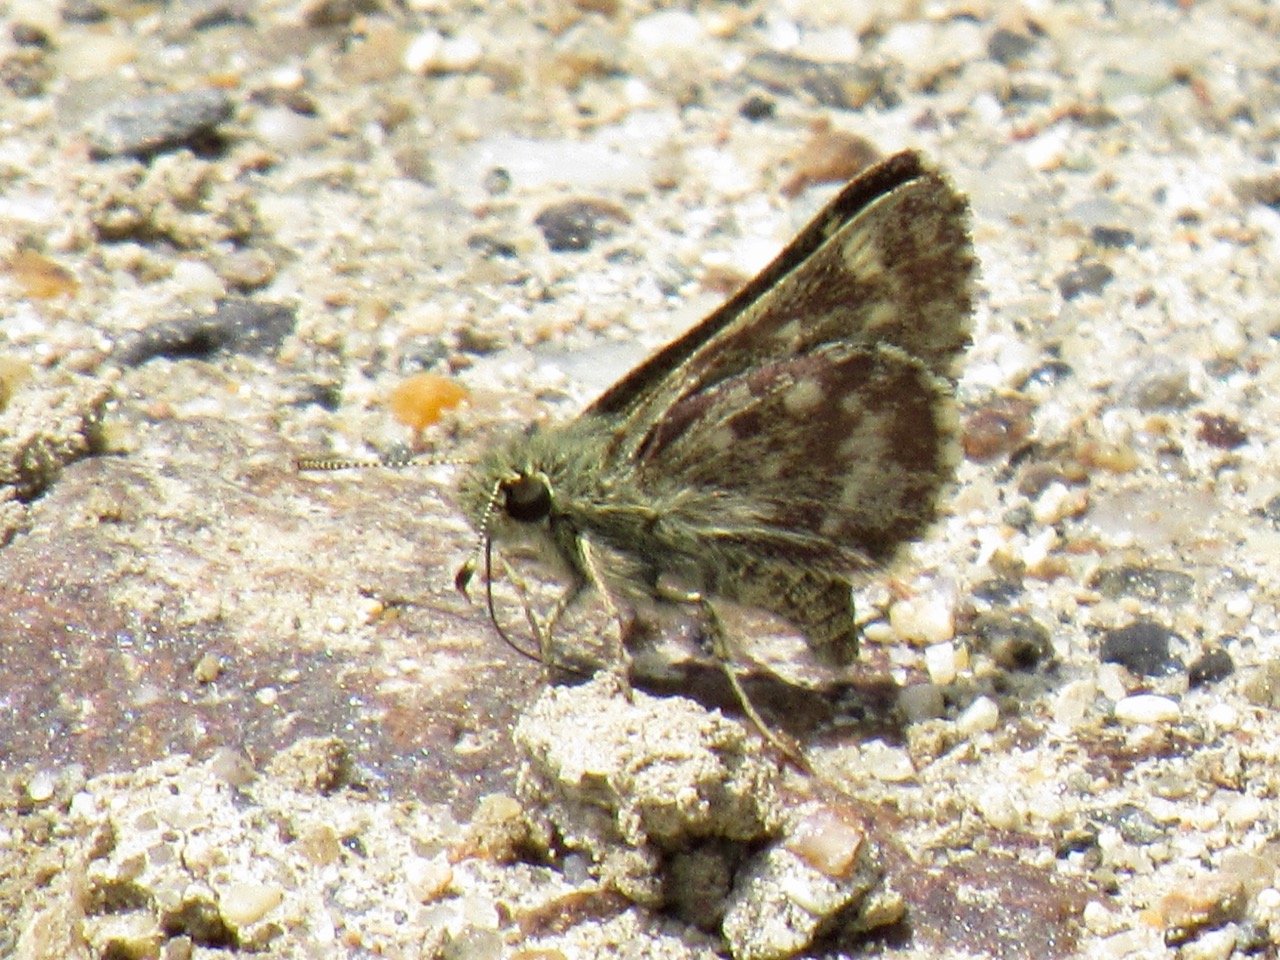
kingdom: Animalia
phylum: Arthropoda
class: Insecta
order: Lepidoptera
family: Hesperiidae
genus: Mastor
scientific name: Mastor hegon
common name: Pepper and Salt Skipper
